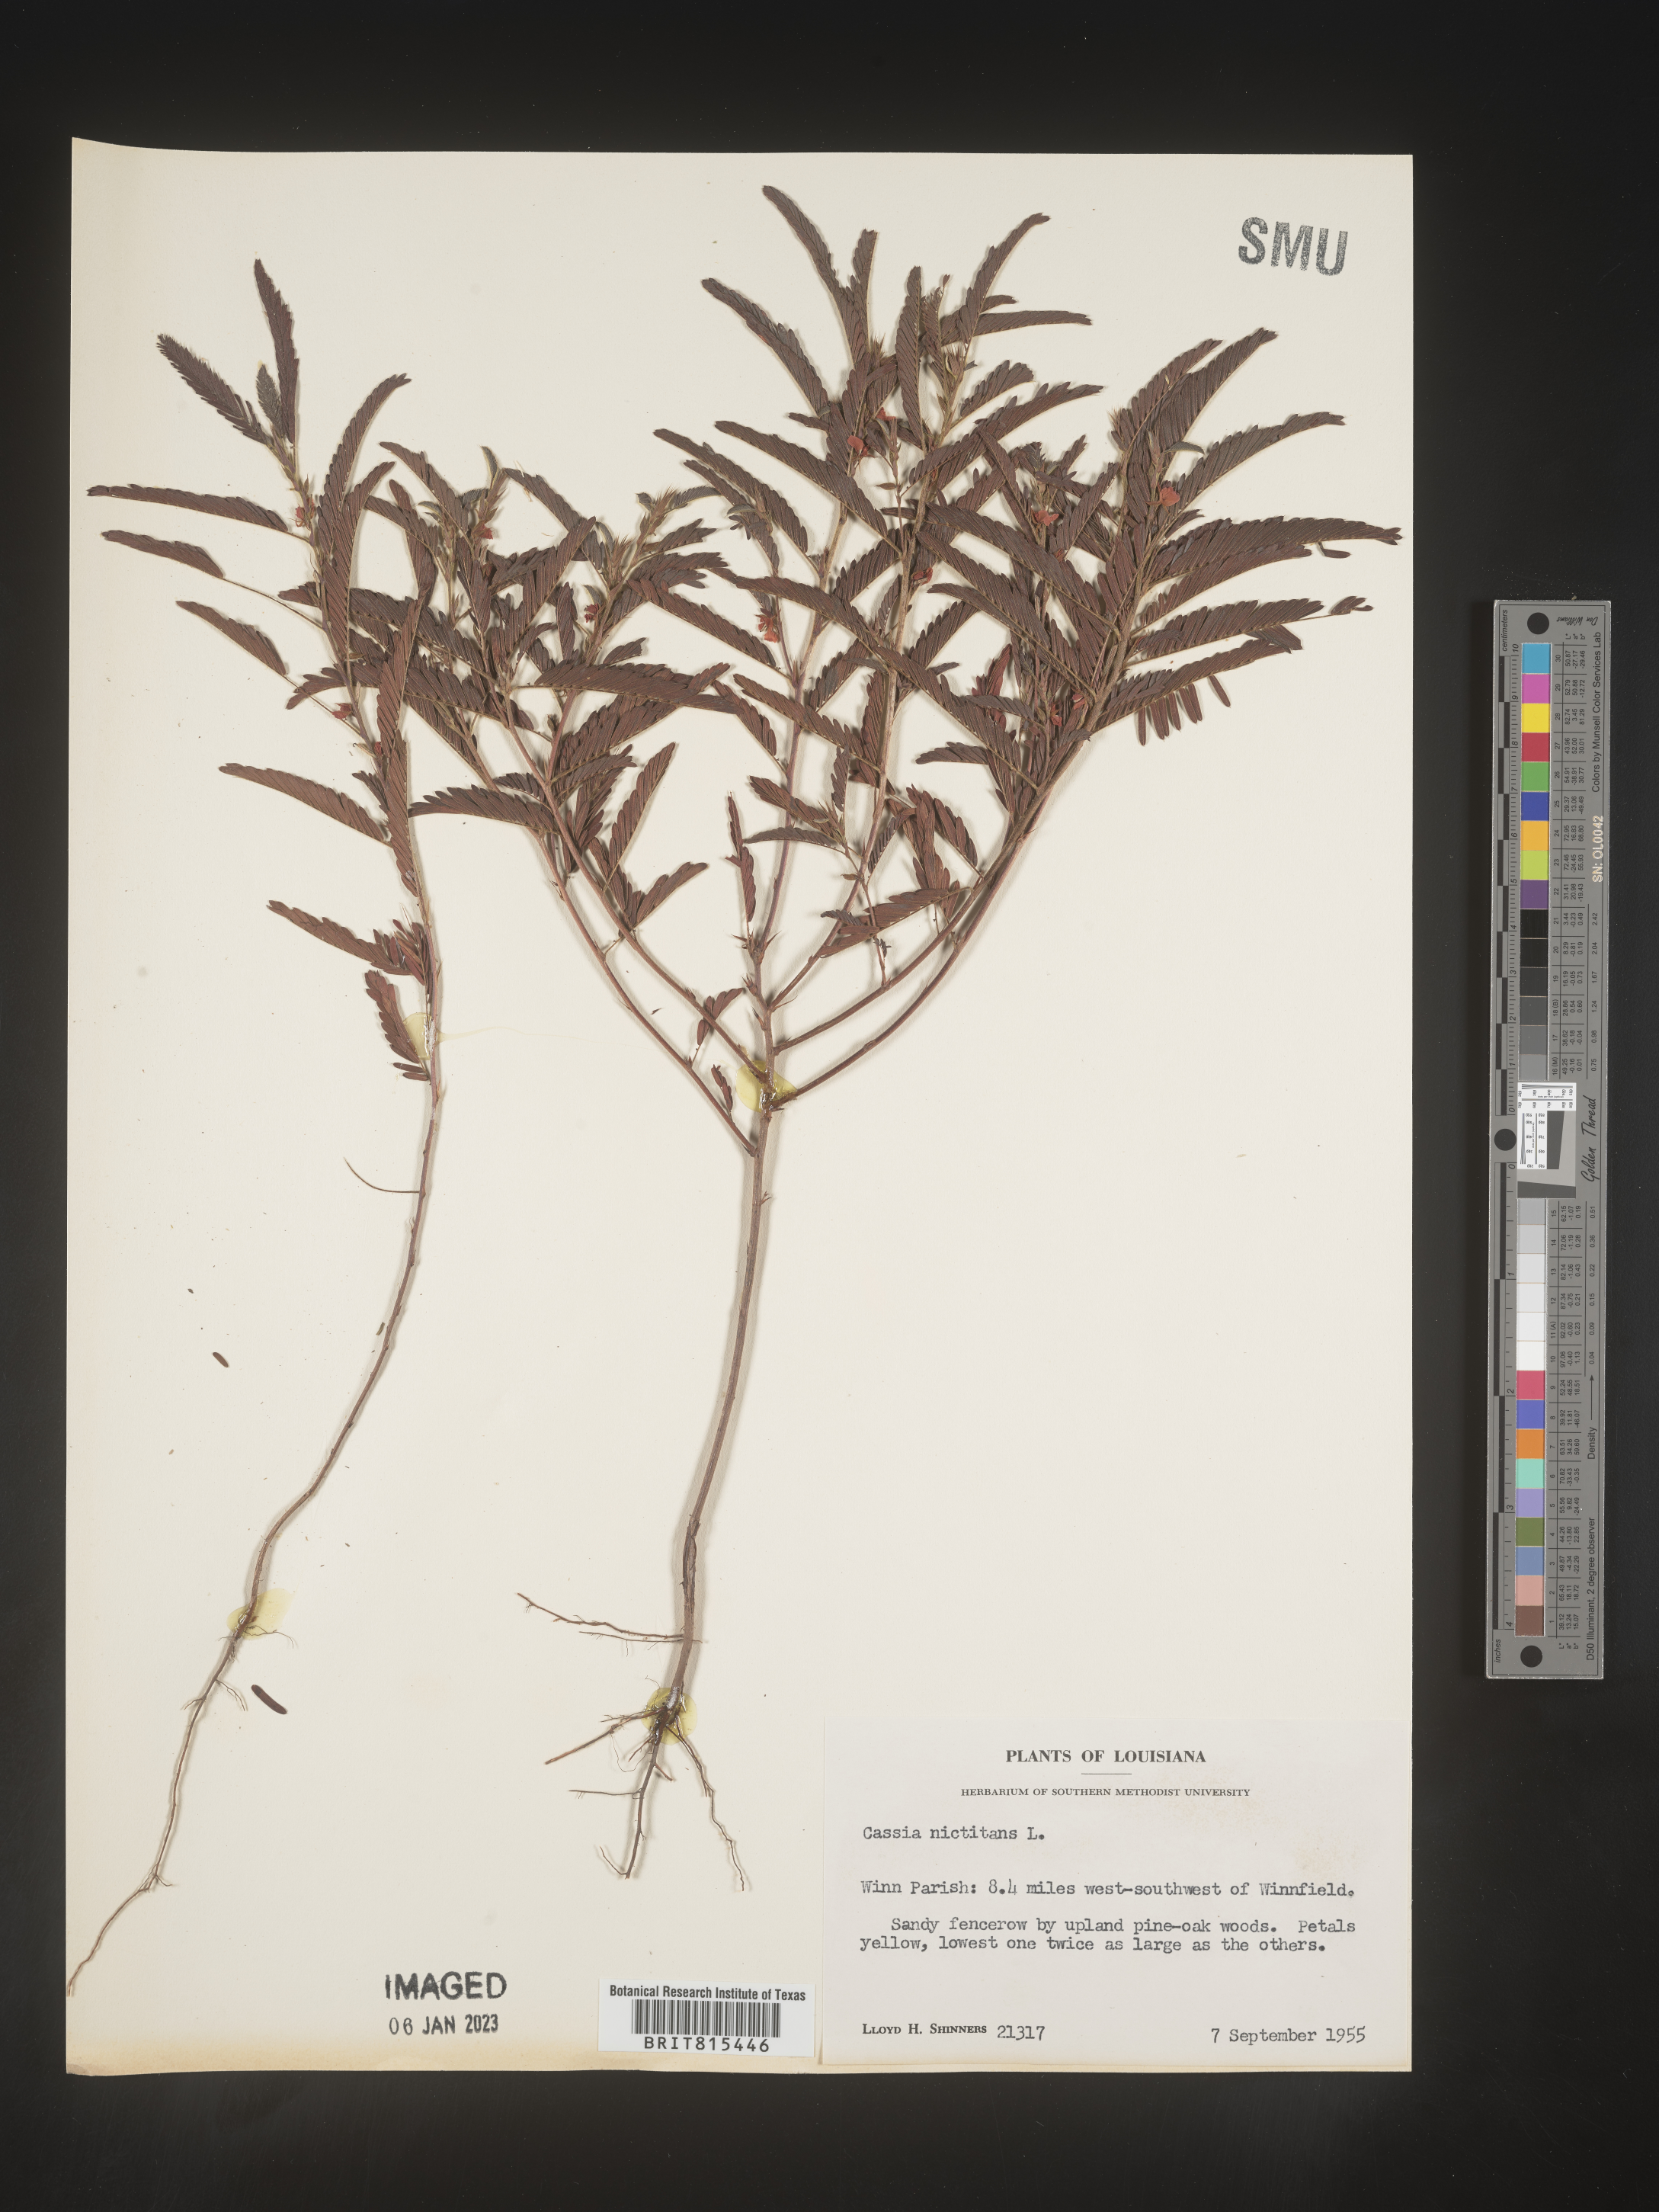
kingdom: Plantae
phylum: Tracheophyta
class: Magnoliopsida
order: Fabales
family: Fabaceae
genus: Chamaecrista
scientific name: Chamaecrista nictitans
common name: Sensitive cassia
